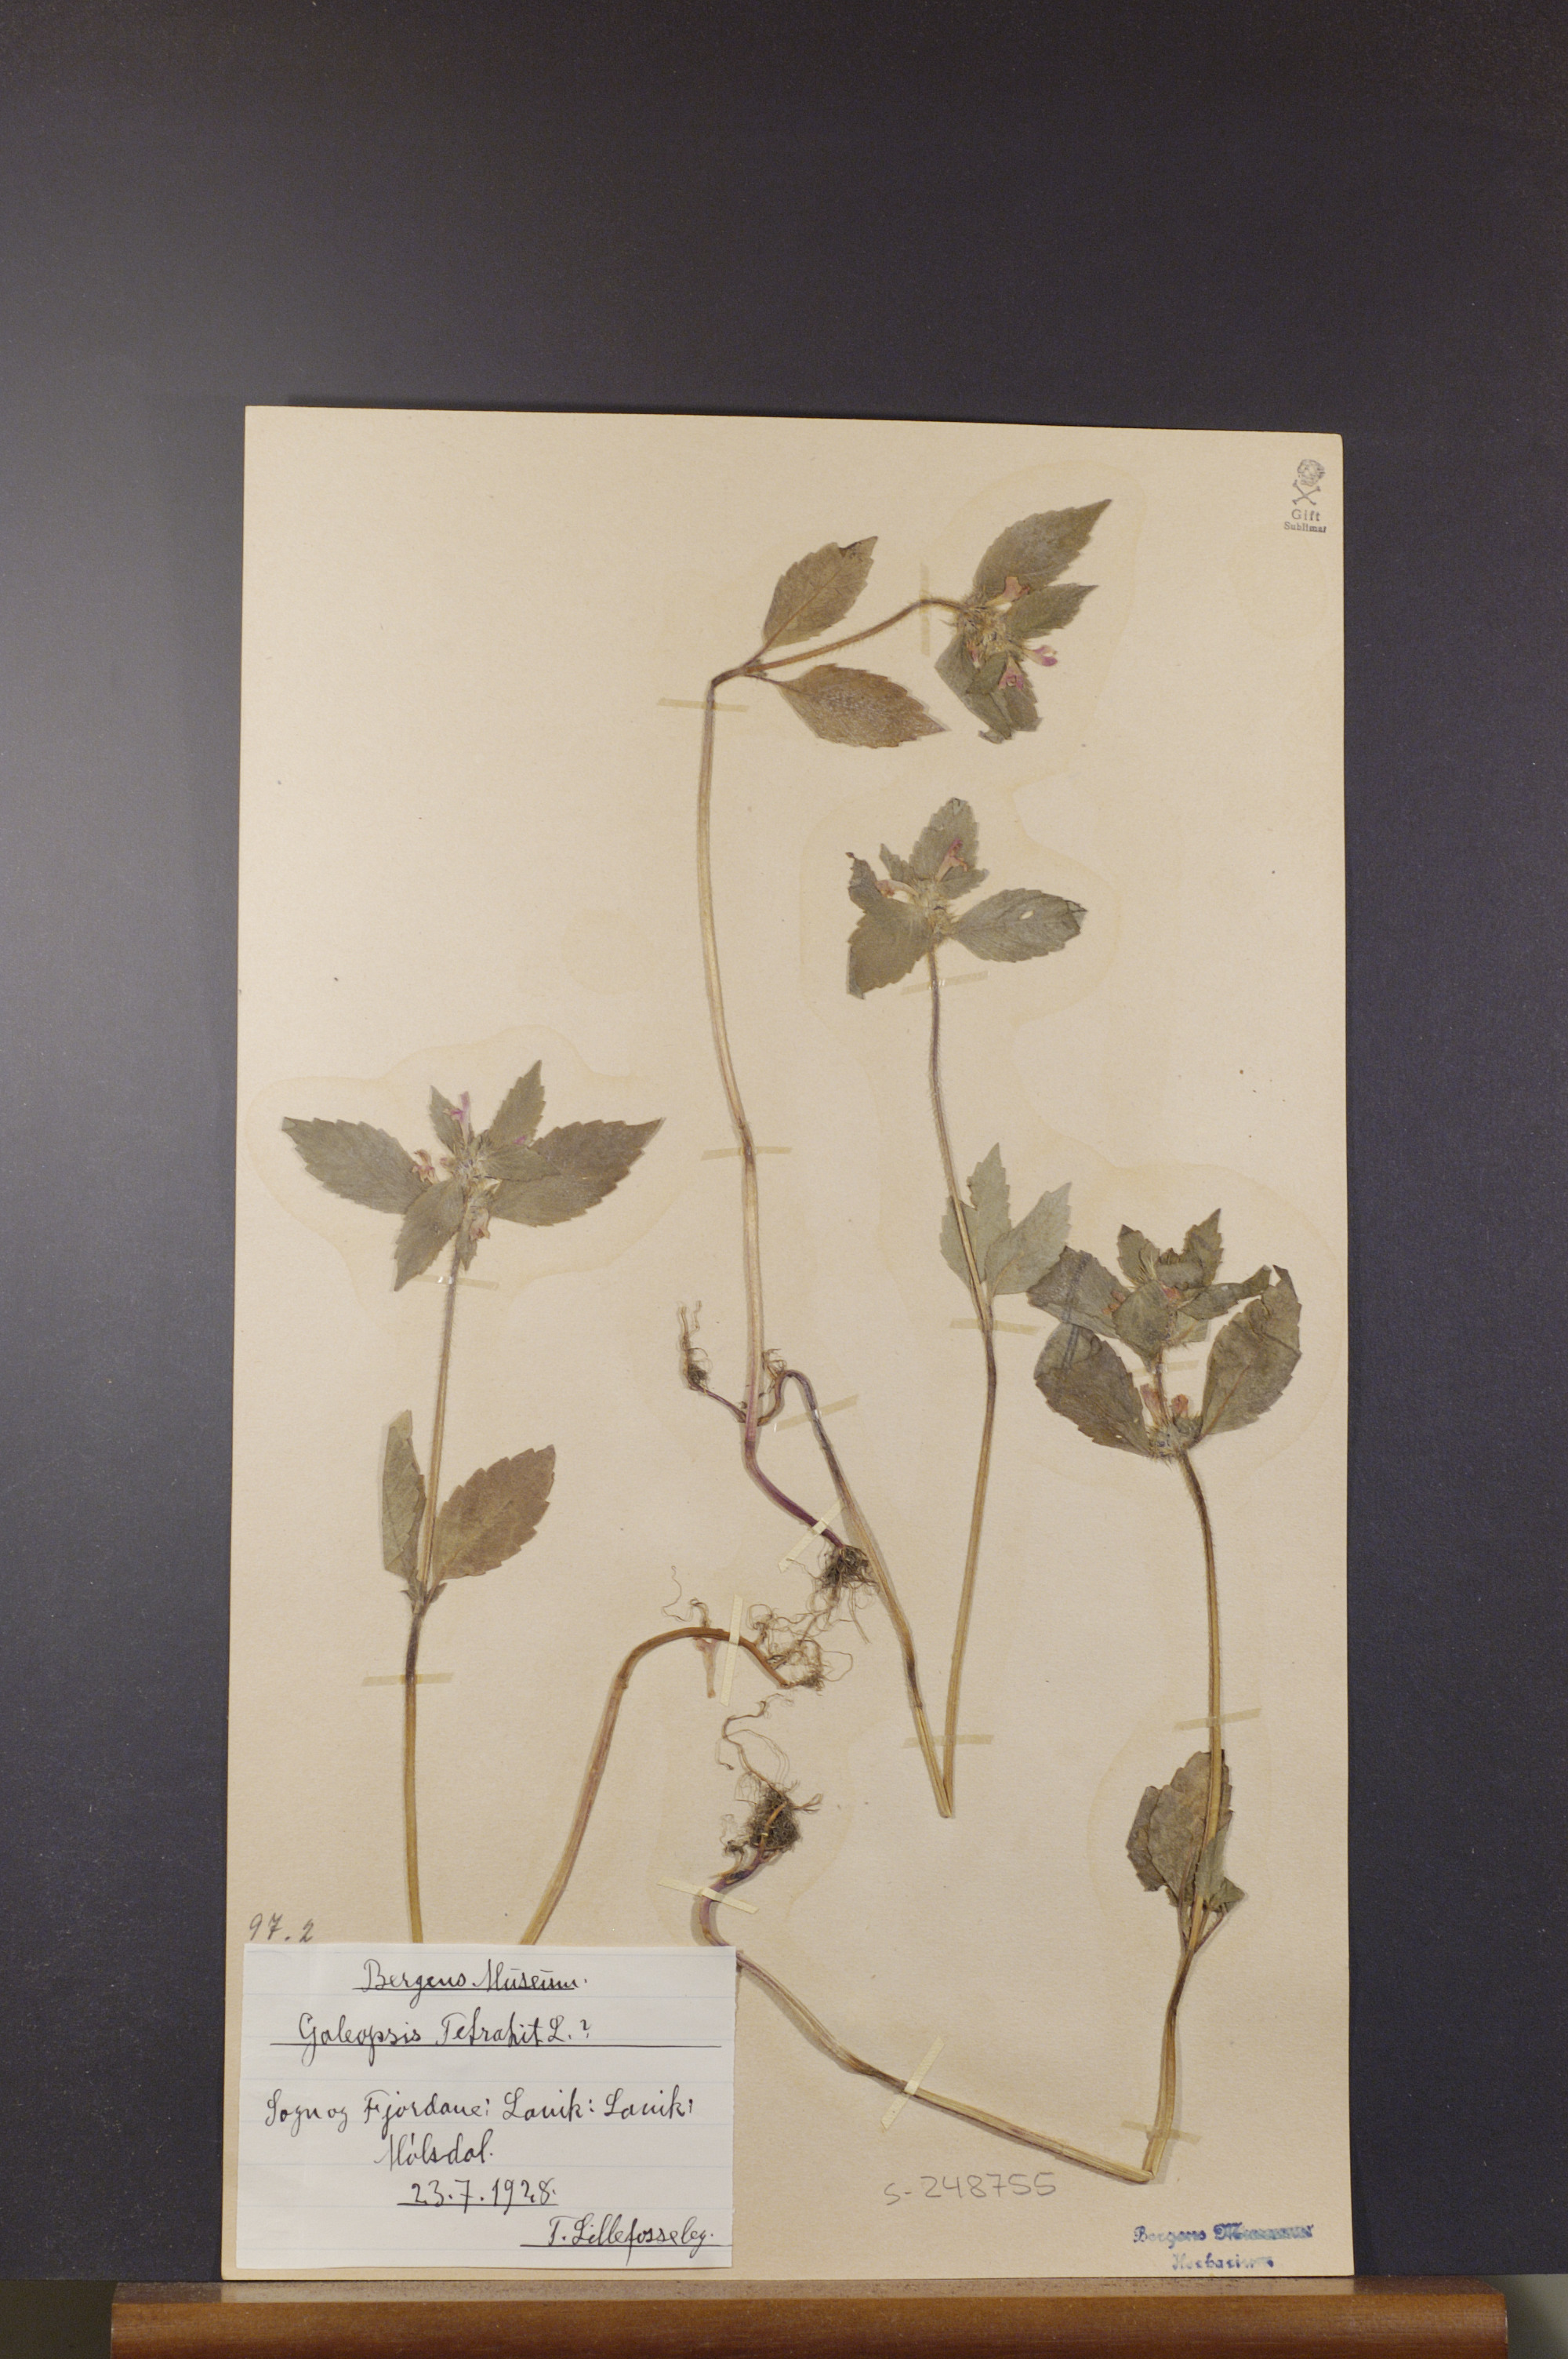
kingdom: Plantae
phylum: Tracheophyta
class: Magnoliopsida
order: Lamiales
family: Lamiaceae
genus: Galeopsis
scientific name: Galeopsis tetrahit
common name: Common hemp-nettle
